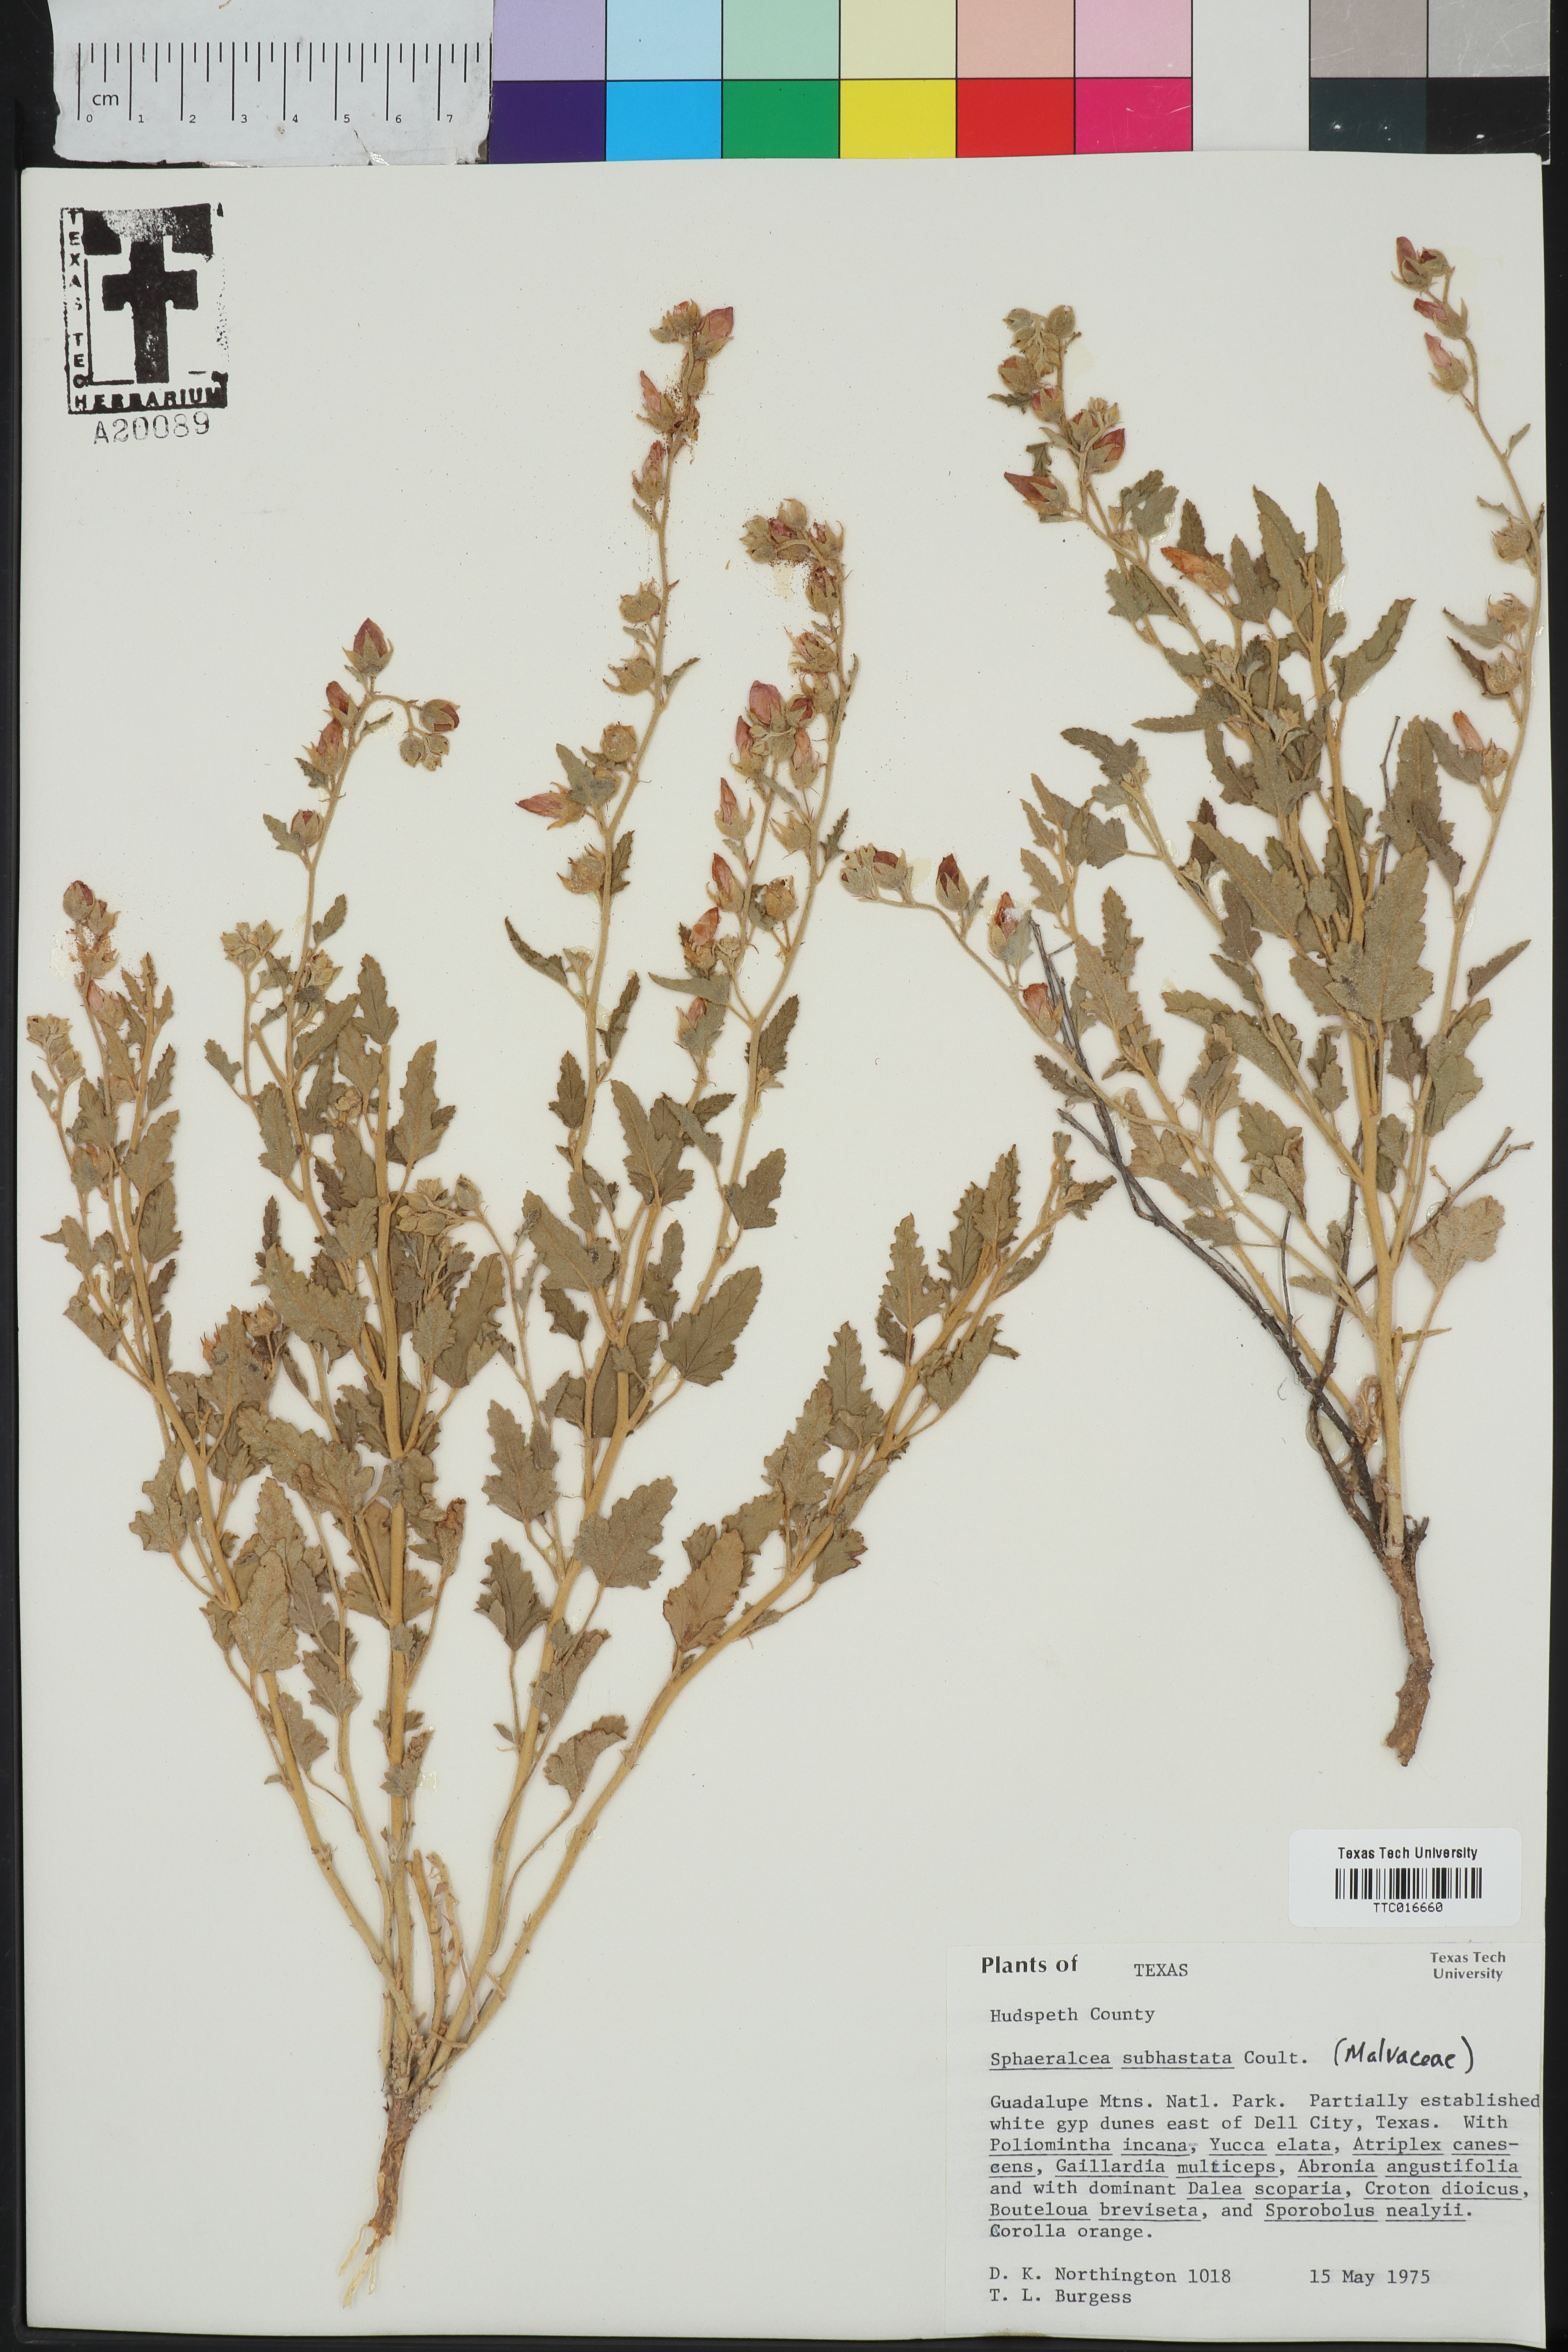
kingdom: Plantae
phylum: Tracheophyta
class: Magnoliopsida
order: Malvales
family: Malvaceae
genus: Sphaeralcea
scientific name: Sphaeralcea hastulata
